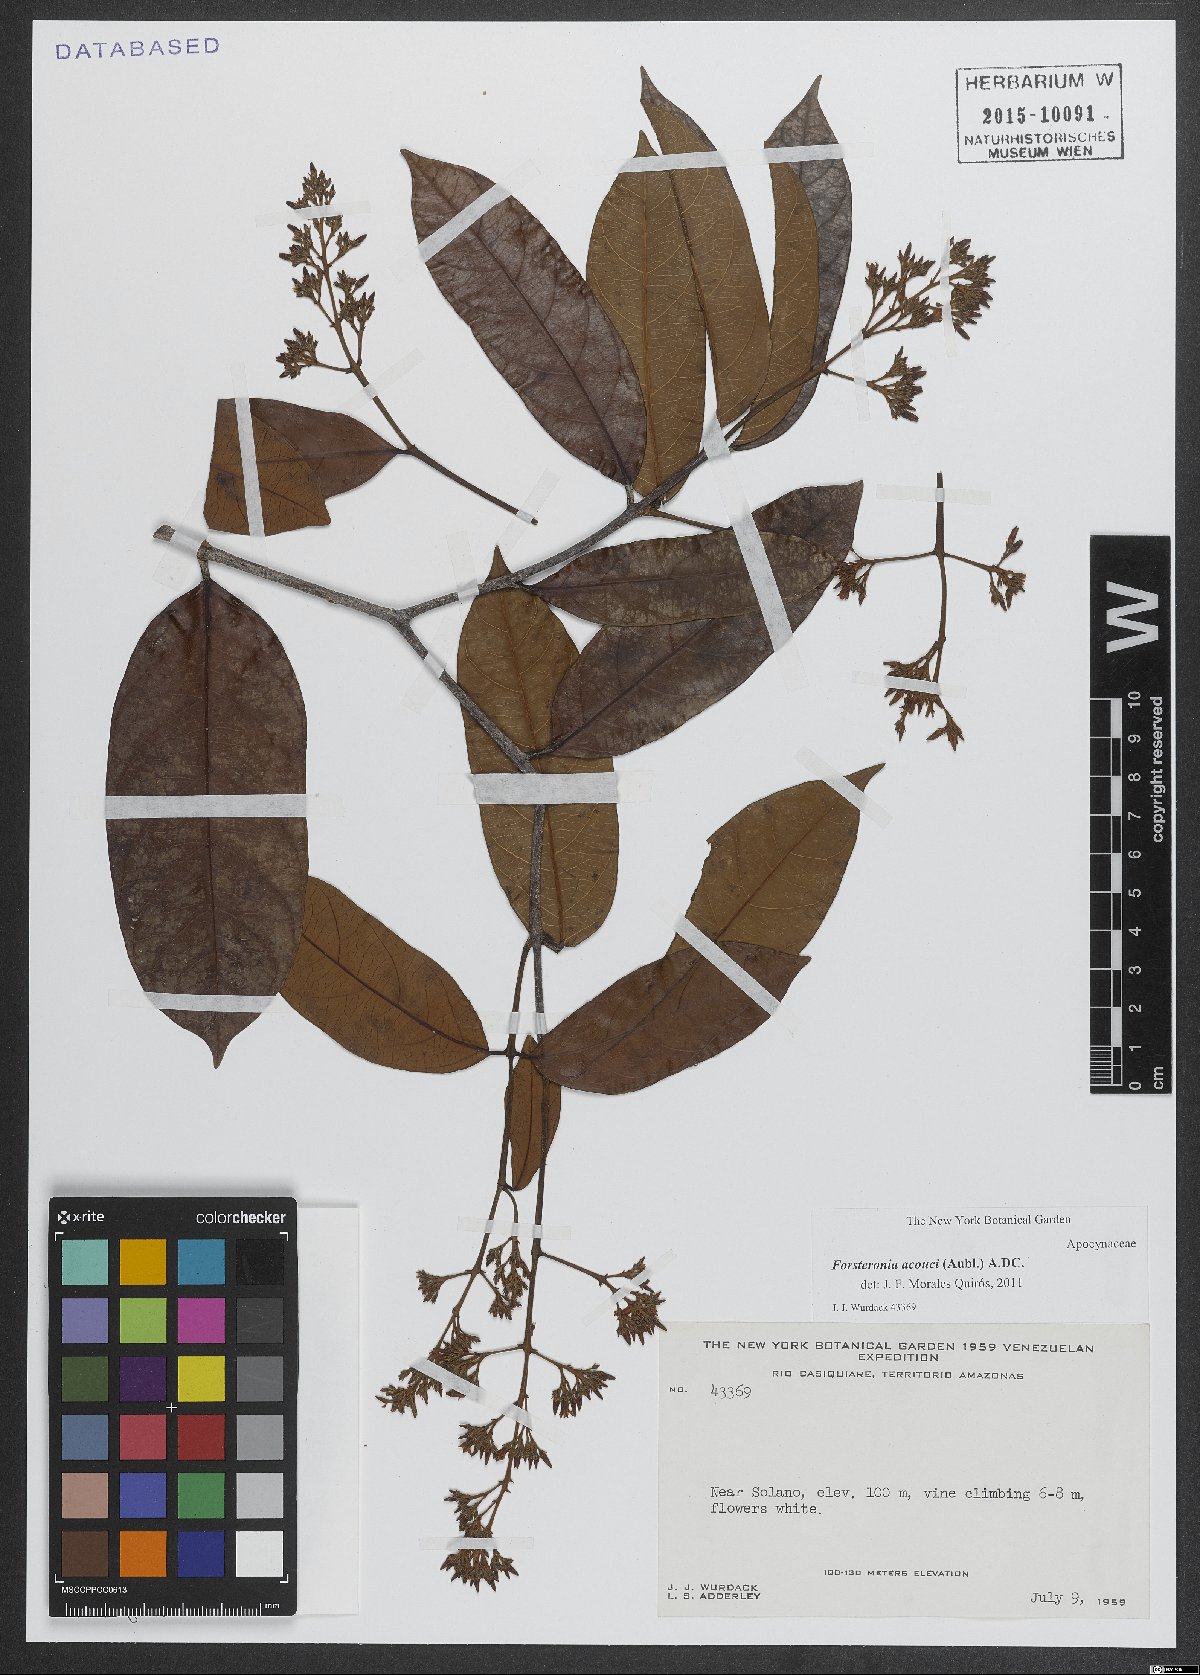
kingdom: Plantae
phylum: Tracheophyta
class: Magnoliopsida
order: Gentianales
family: Apocynaceae
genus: Forsteronia
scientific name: Forsteronia acouci
